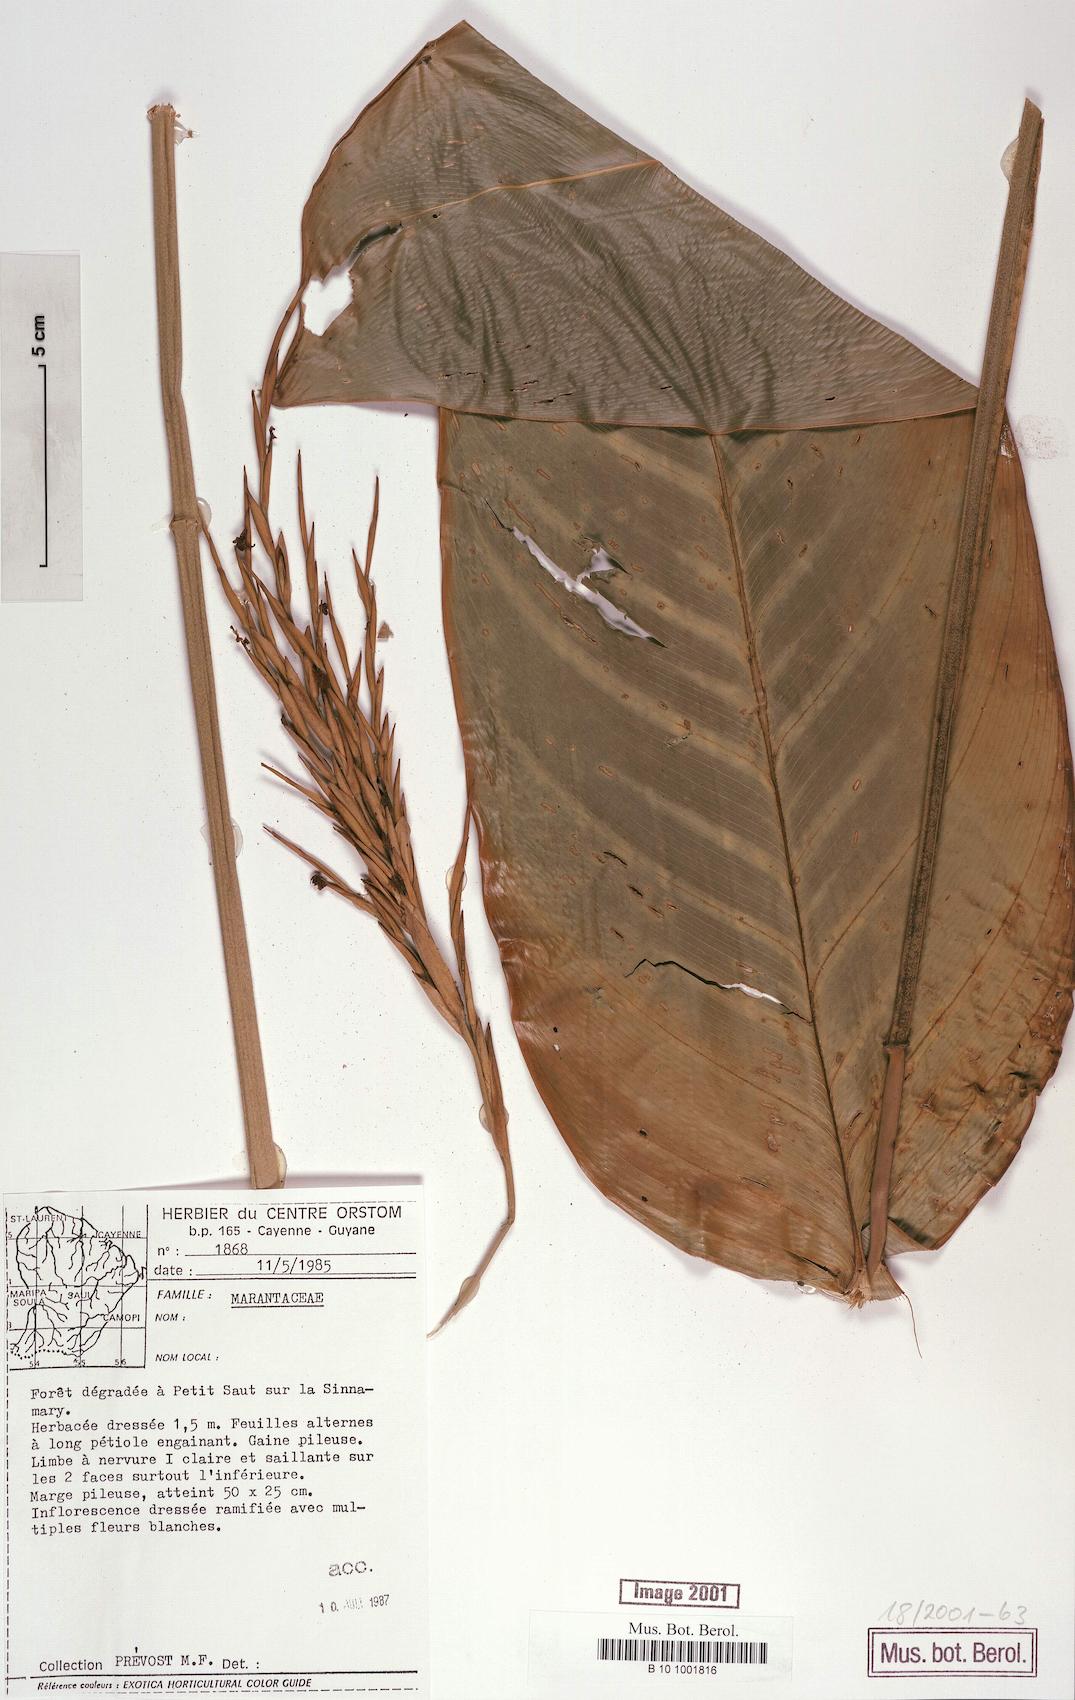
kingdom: Plantae
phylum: Tracheophyta
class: Liliopsida
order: Zingiberales
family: Marantaceae
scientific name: Marantaceae
